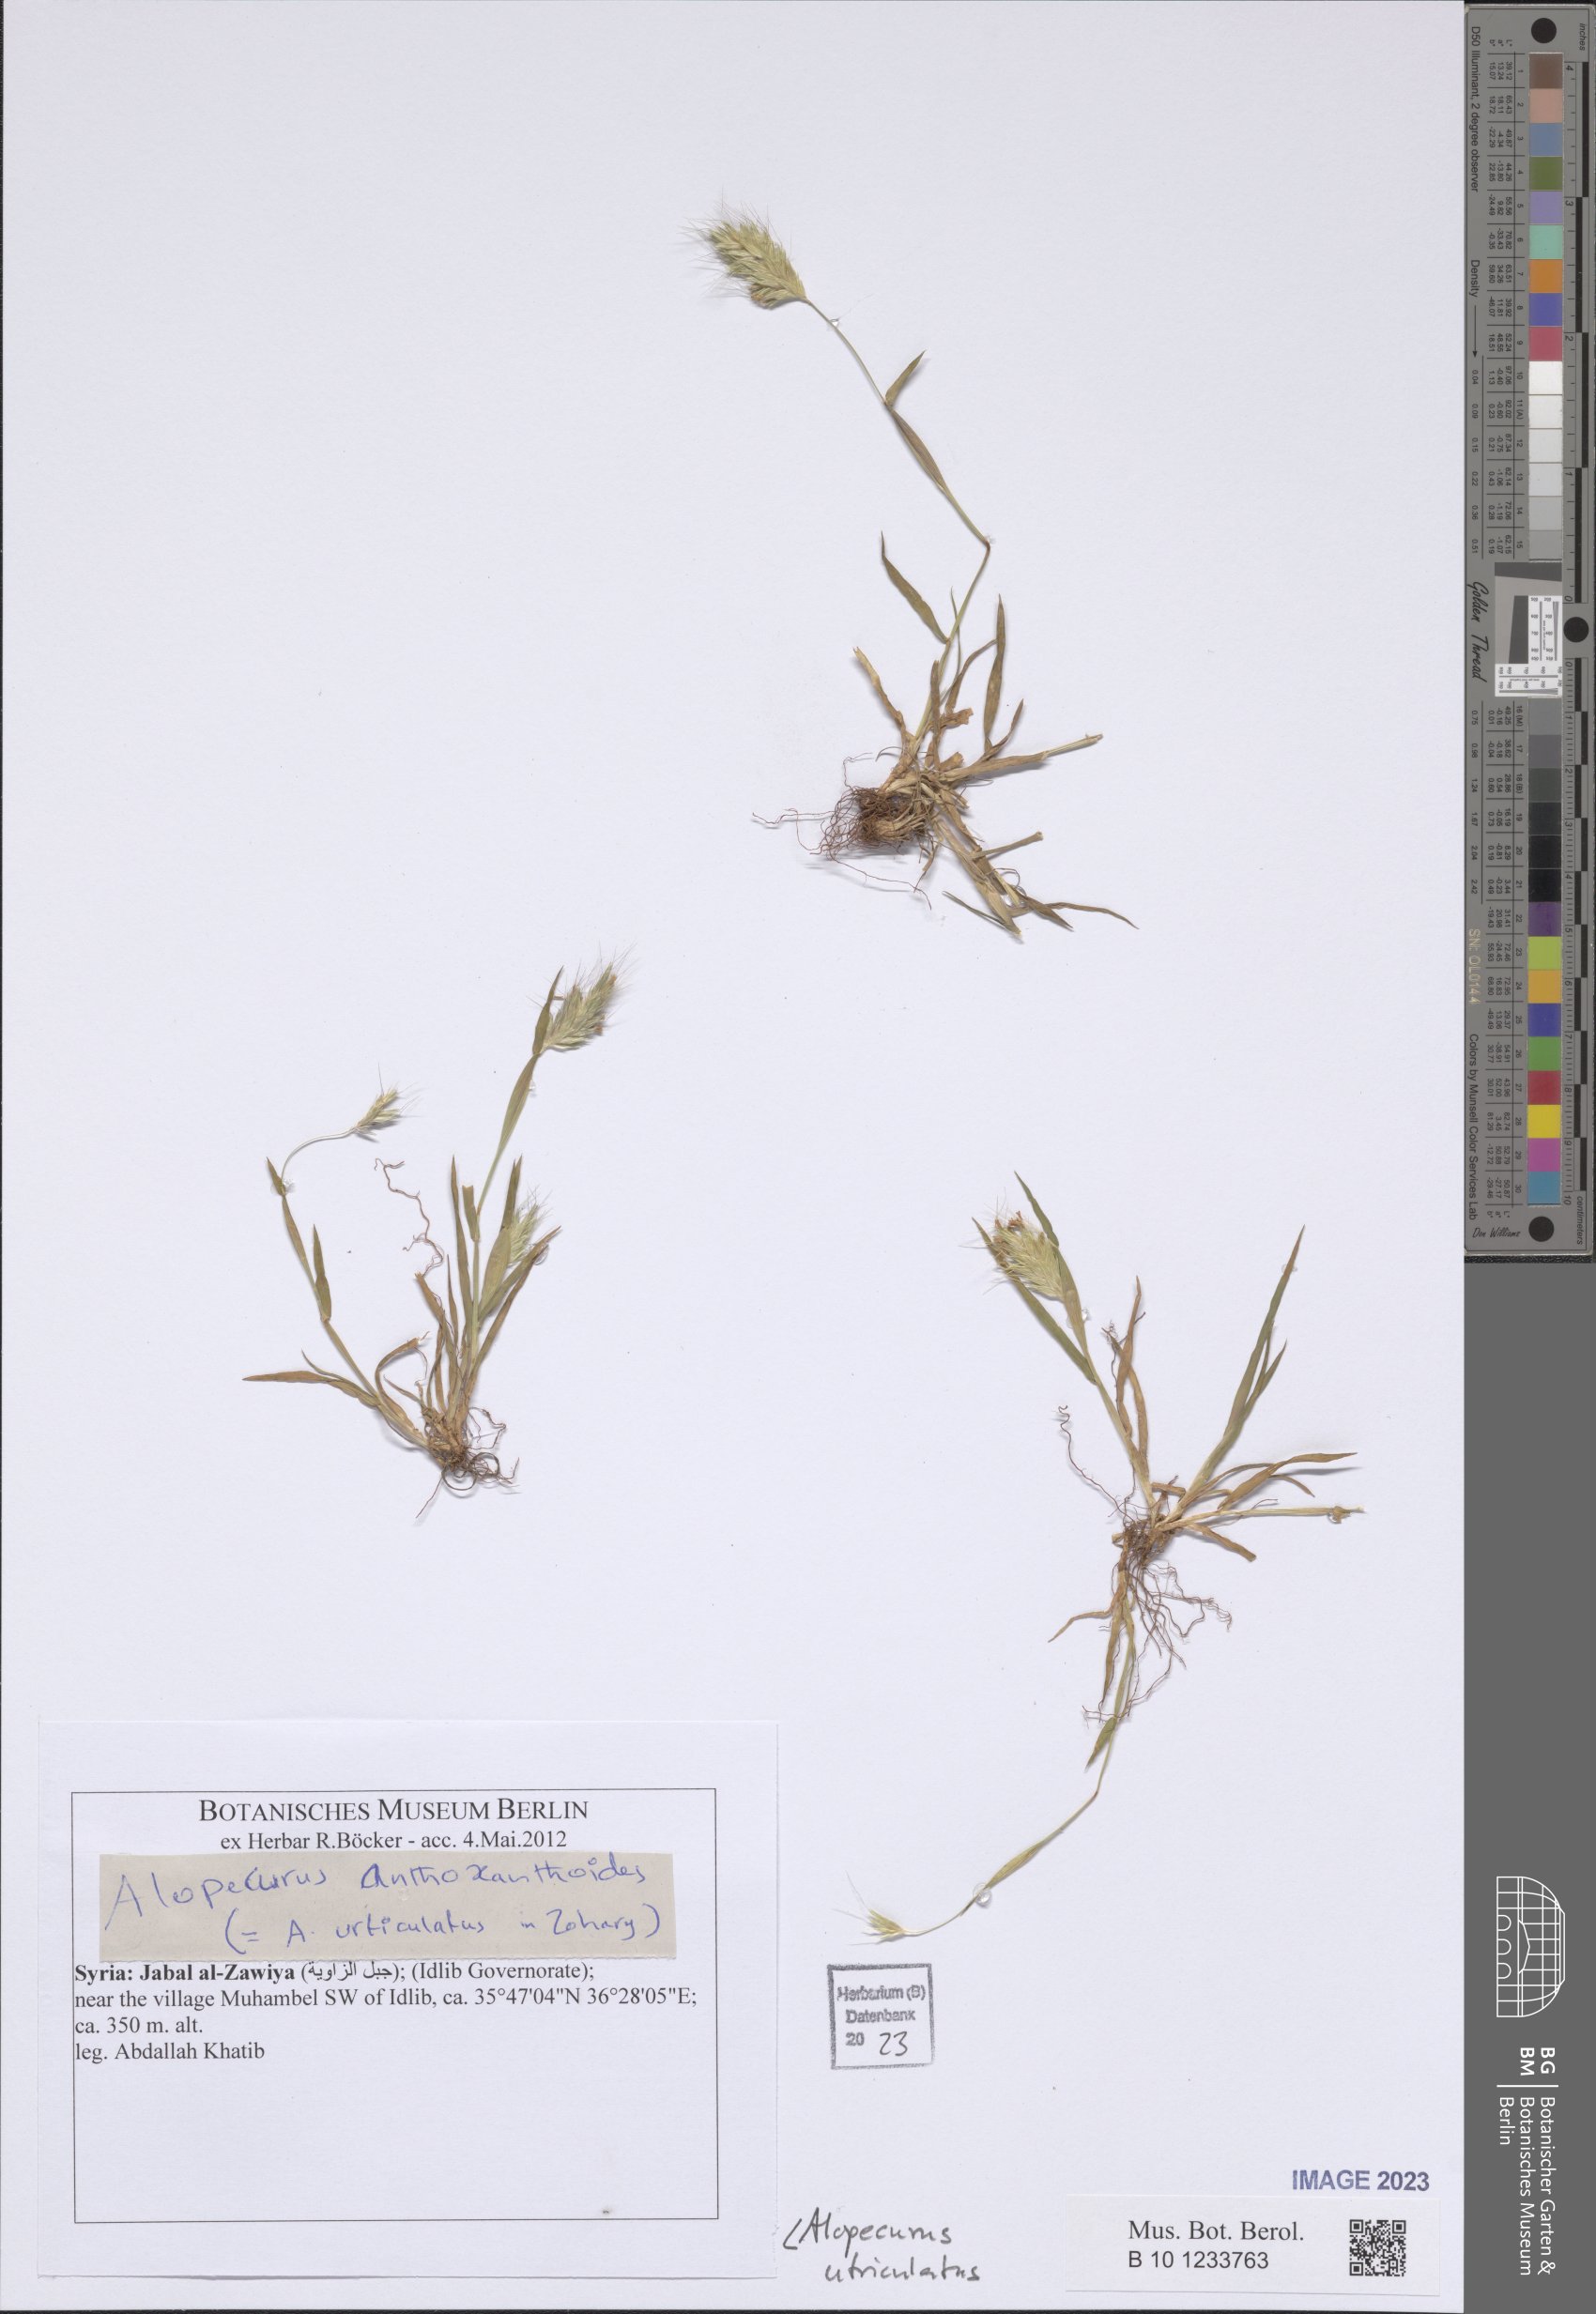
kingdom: Plantae
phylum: Tracheophyta
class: Liliopsida
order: Poales
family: Poaceae
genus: Alopecurus
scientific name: Alopecurus rendlei
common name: Rendle's meadow foxtail
